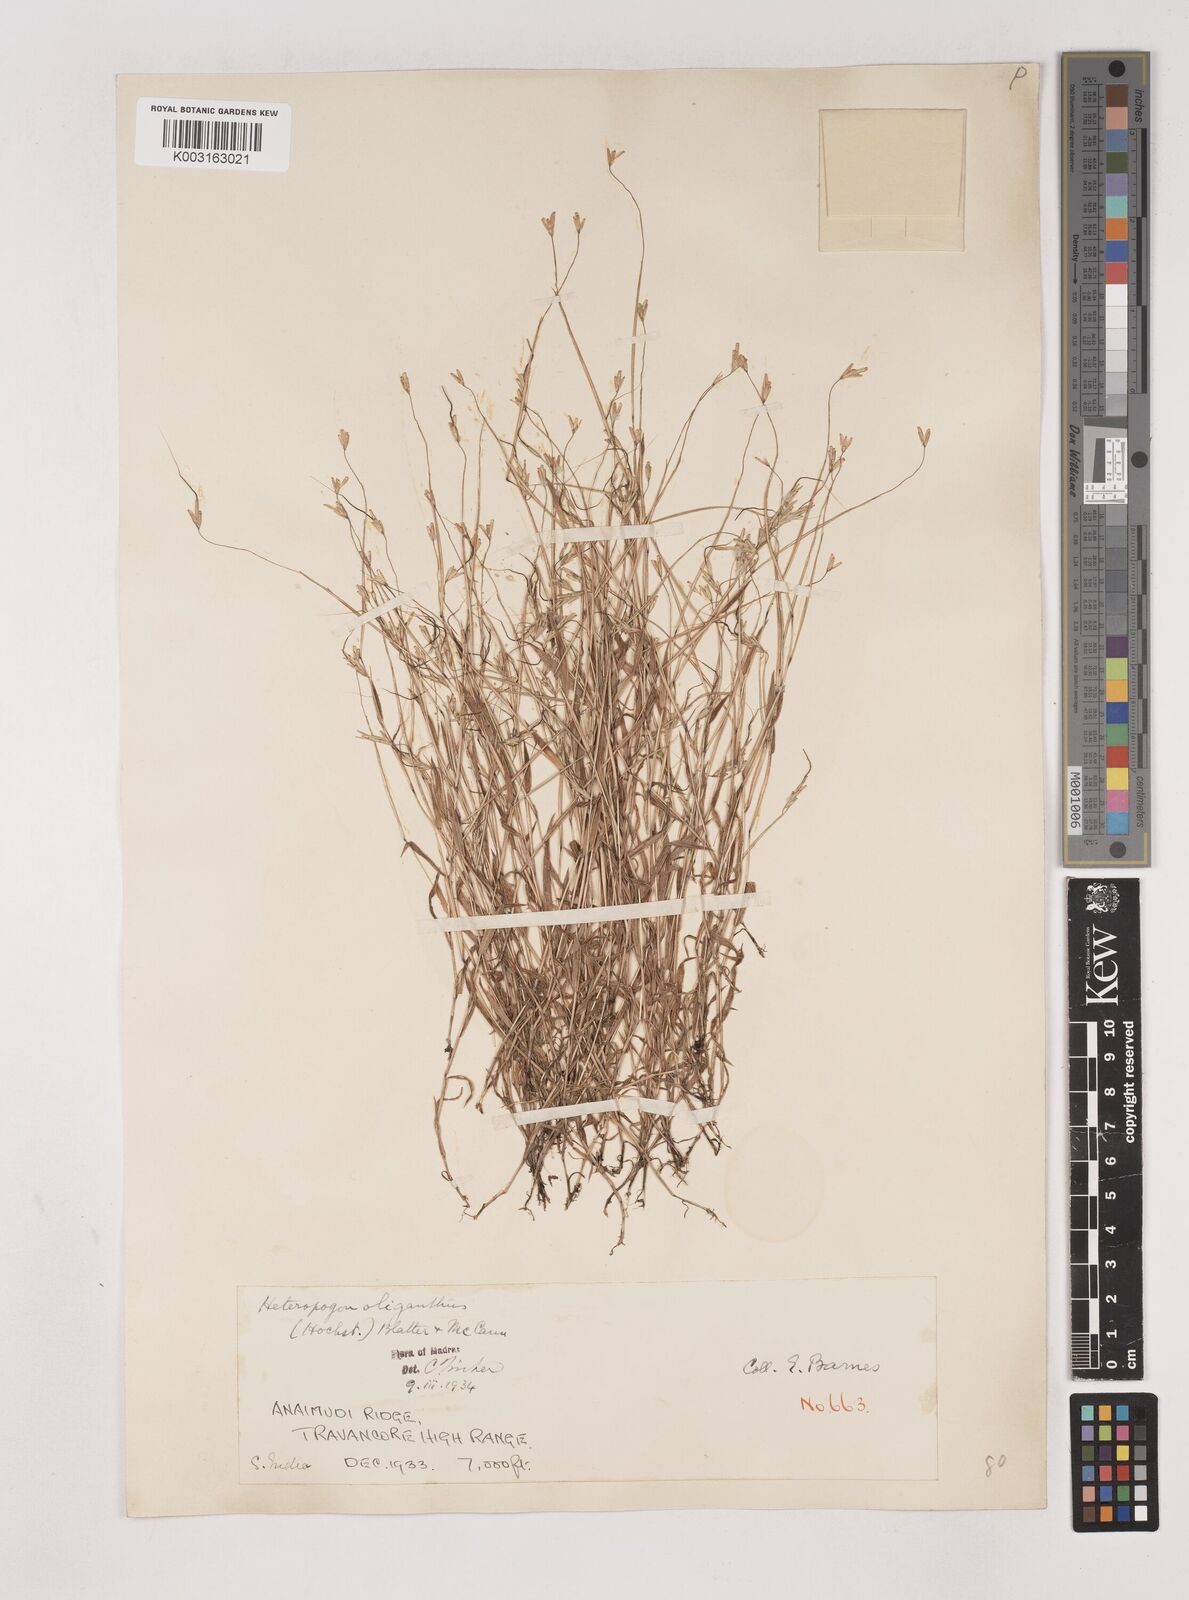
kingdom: Plantae
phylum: Tracheophyta
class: Liliopsida
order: Poales
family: Poaceae
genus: Euclasta
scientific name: Euclasta oligantha
